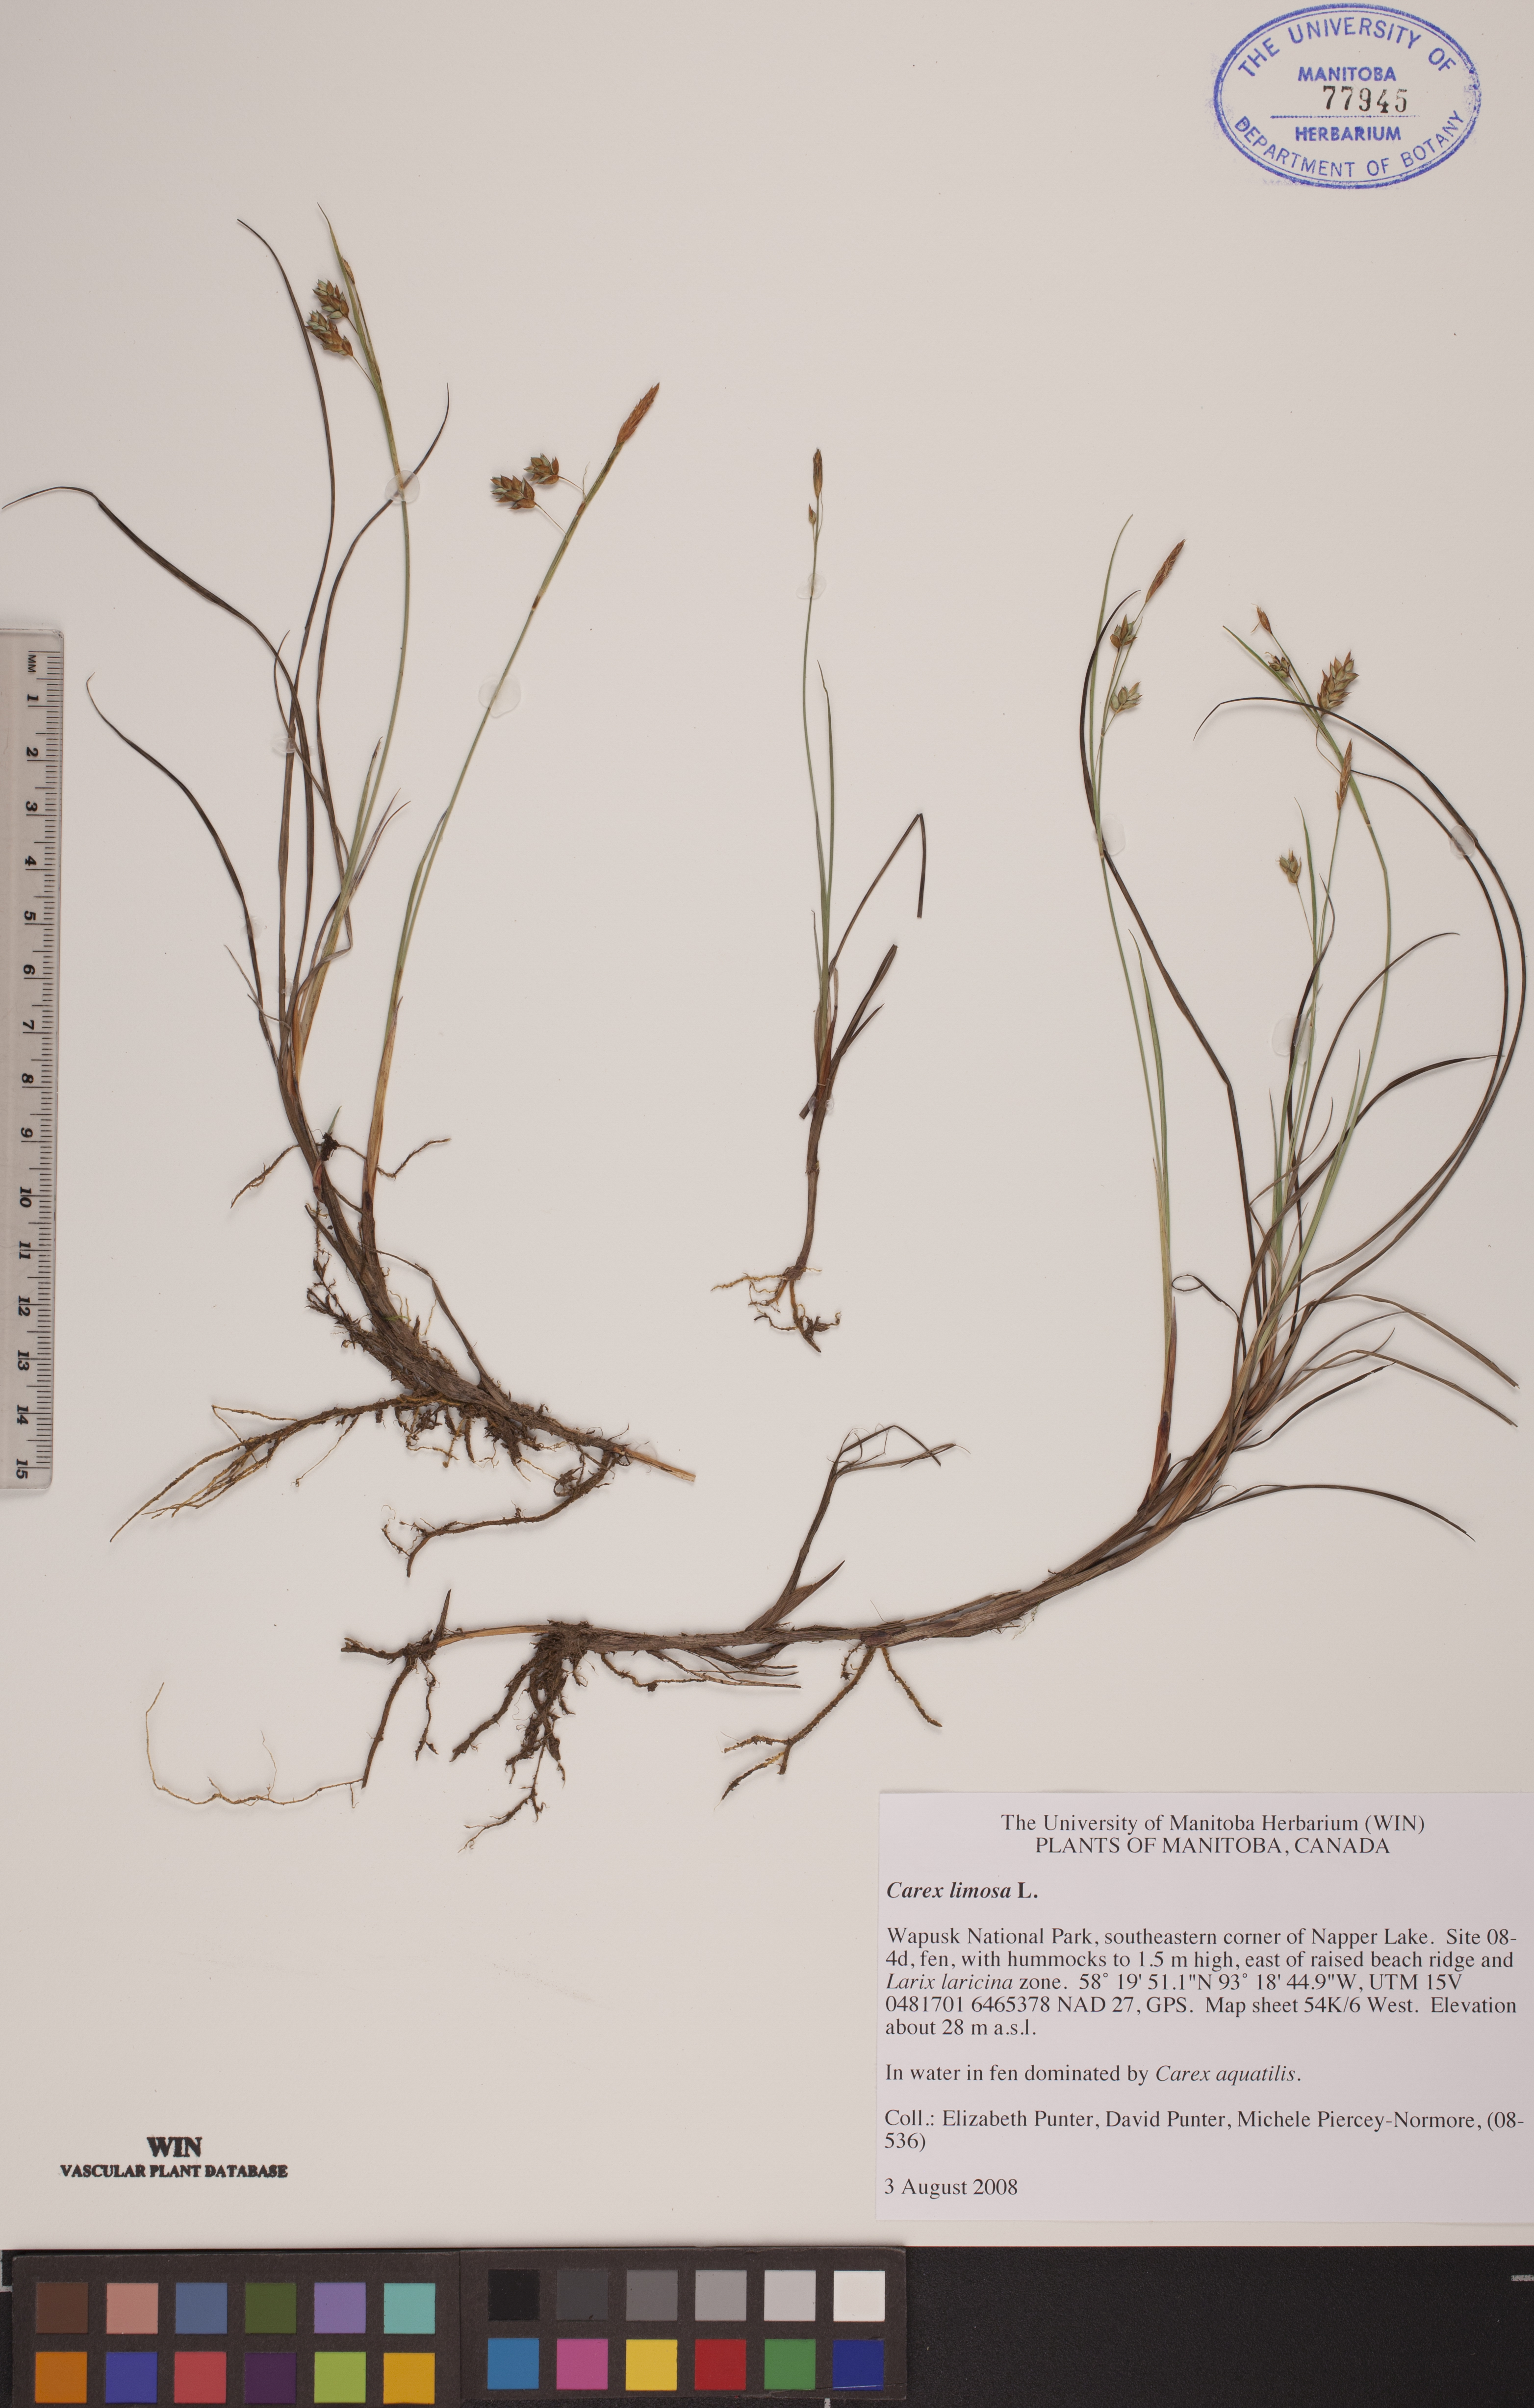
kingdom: Plantae
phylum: Tracheophyta
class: Liliopsida
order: Poales
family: Cyperaceae
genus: Carex
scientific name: Carex limosa
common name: Bog sedge
